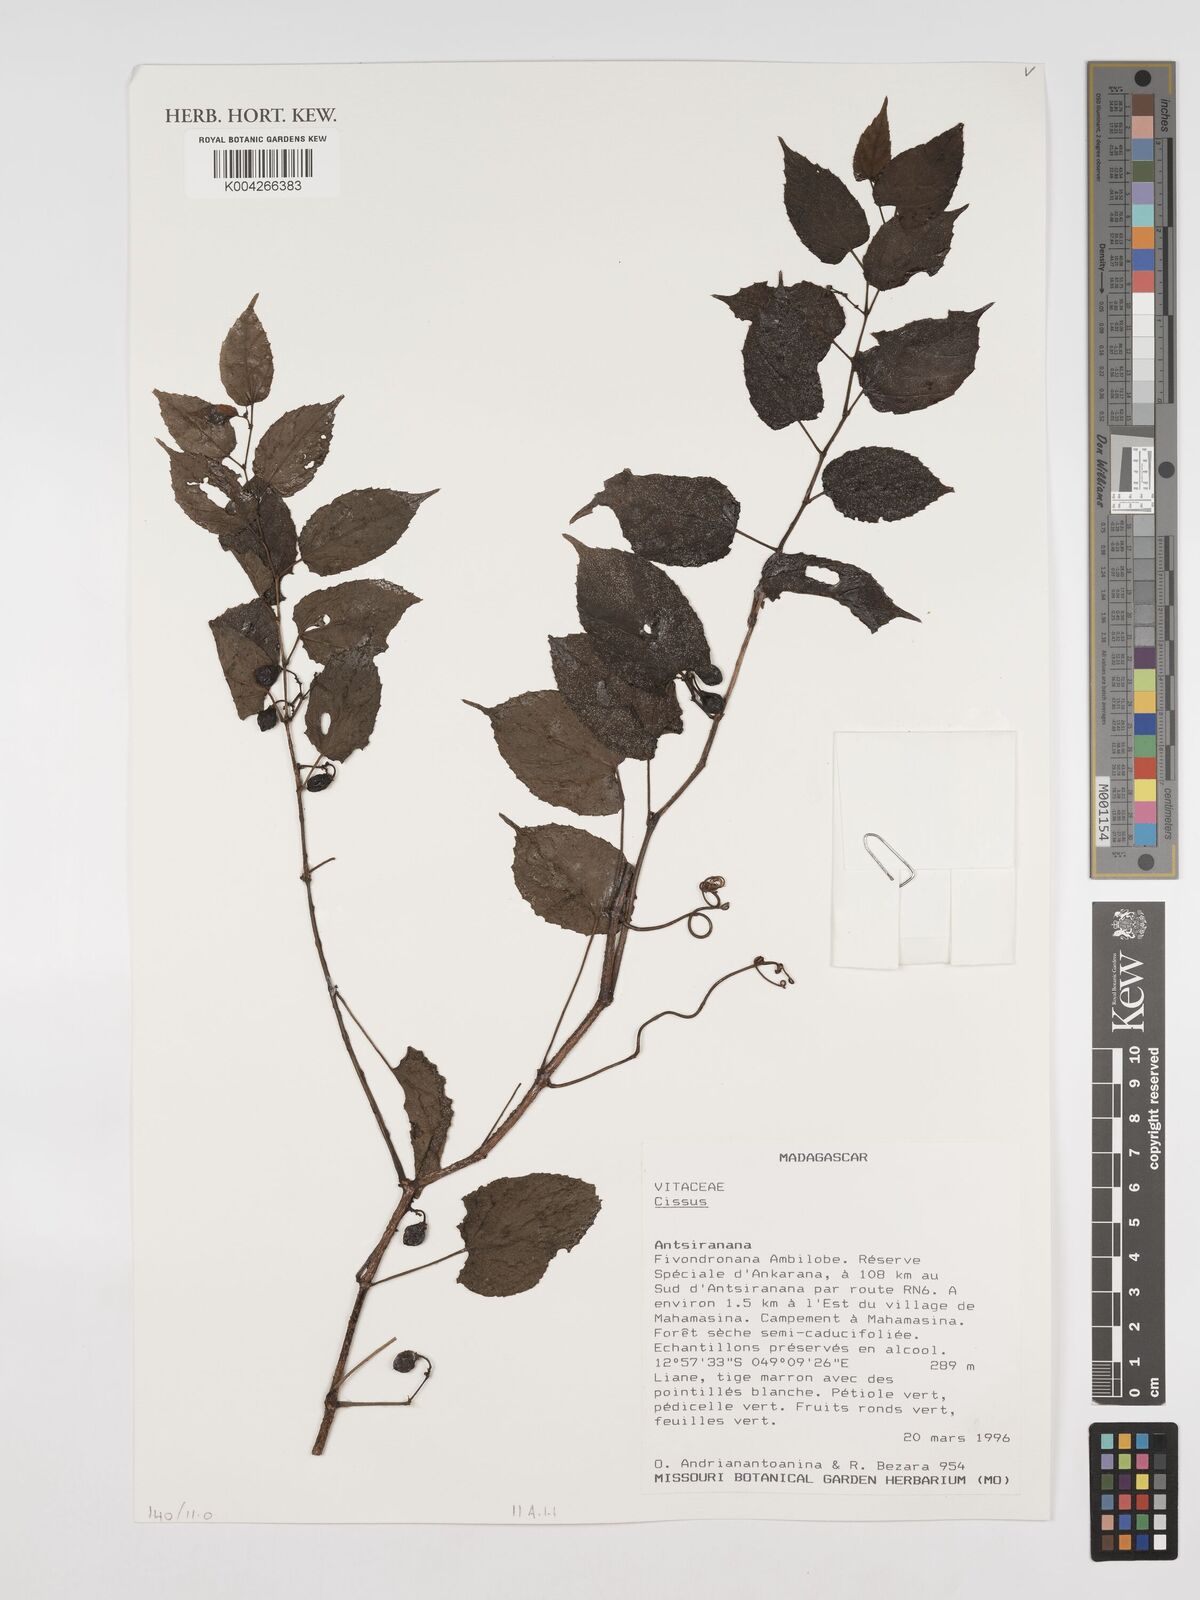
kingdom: Plantae
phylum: Tracheophyta
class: Magnoliopsida
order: Vitales
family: Vitaceae
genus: Cissus
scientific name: Cissus
